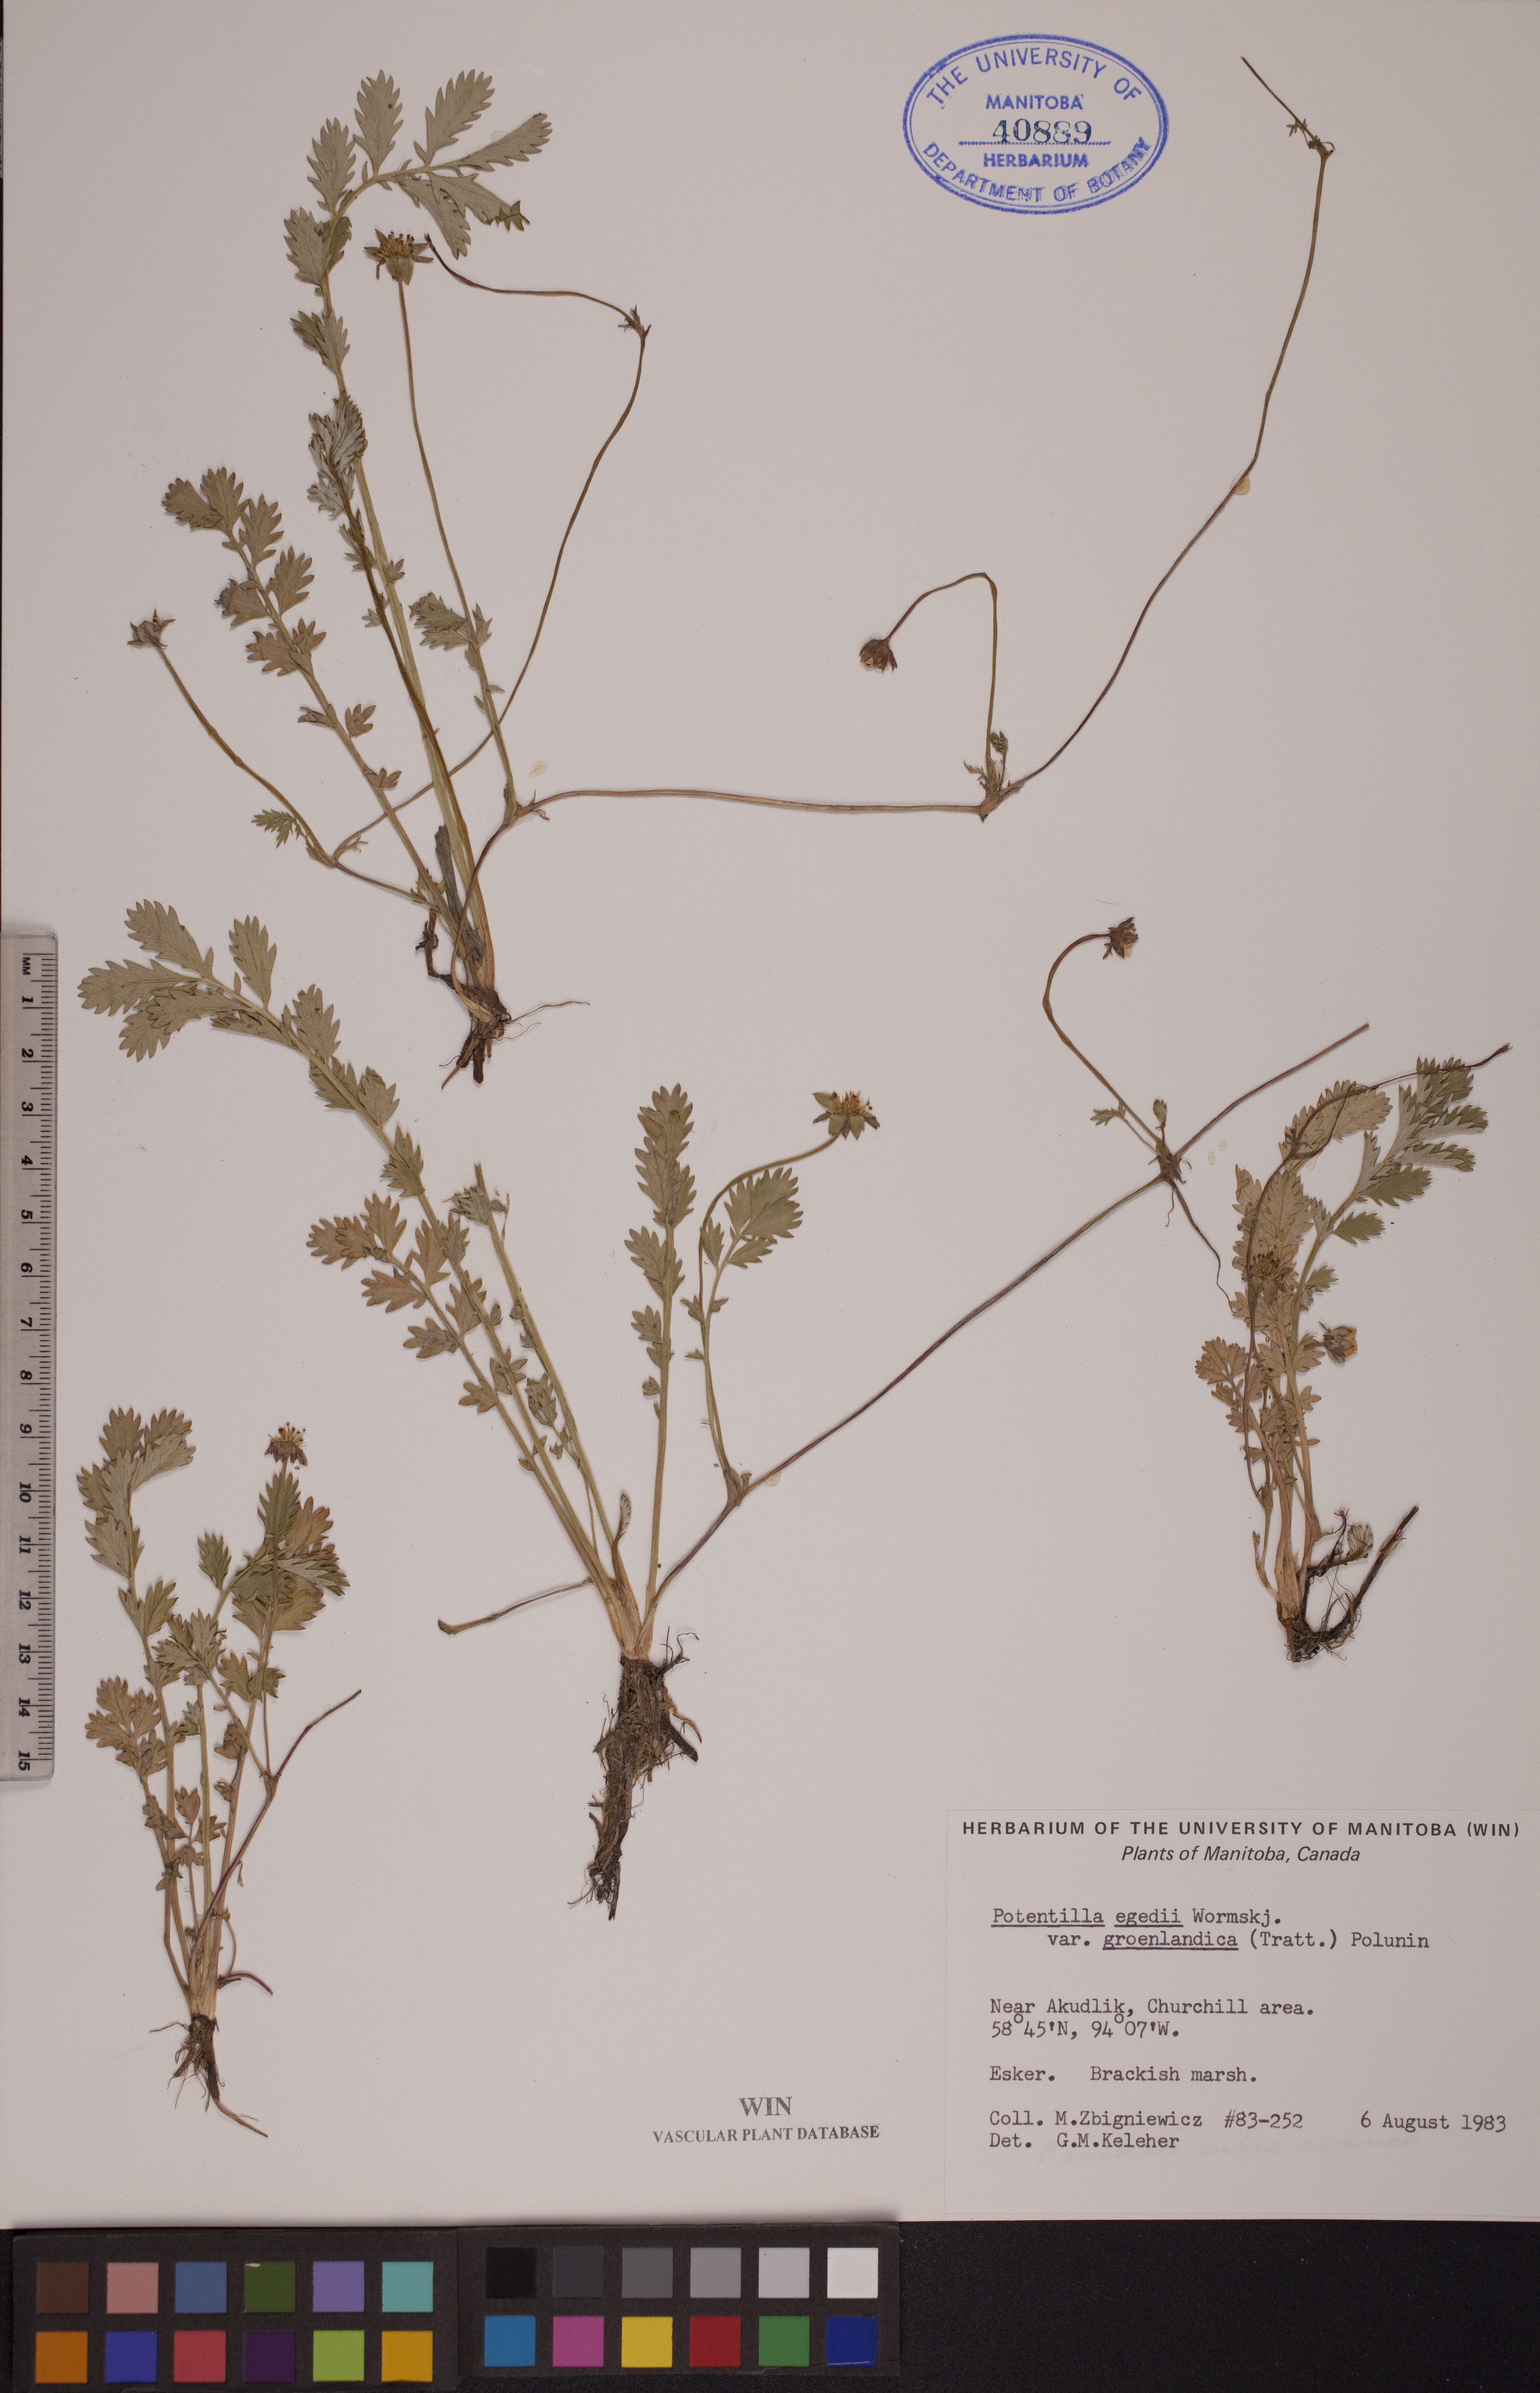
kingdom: Plantae
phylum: Tracheophyta
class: Magnoliopsida
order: Rosales
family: Rosaceae
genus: Argentina
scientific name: Argentina anserina
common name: Common silverweed
